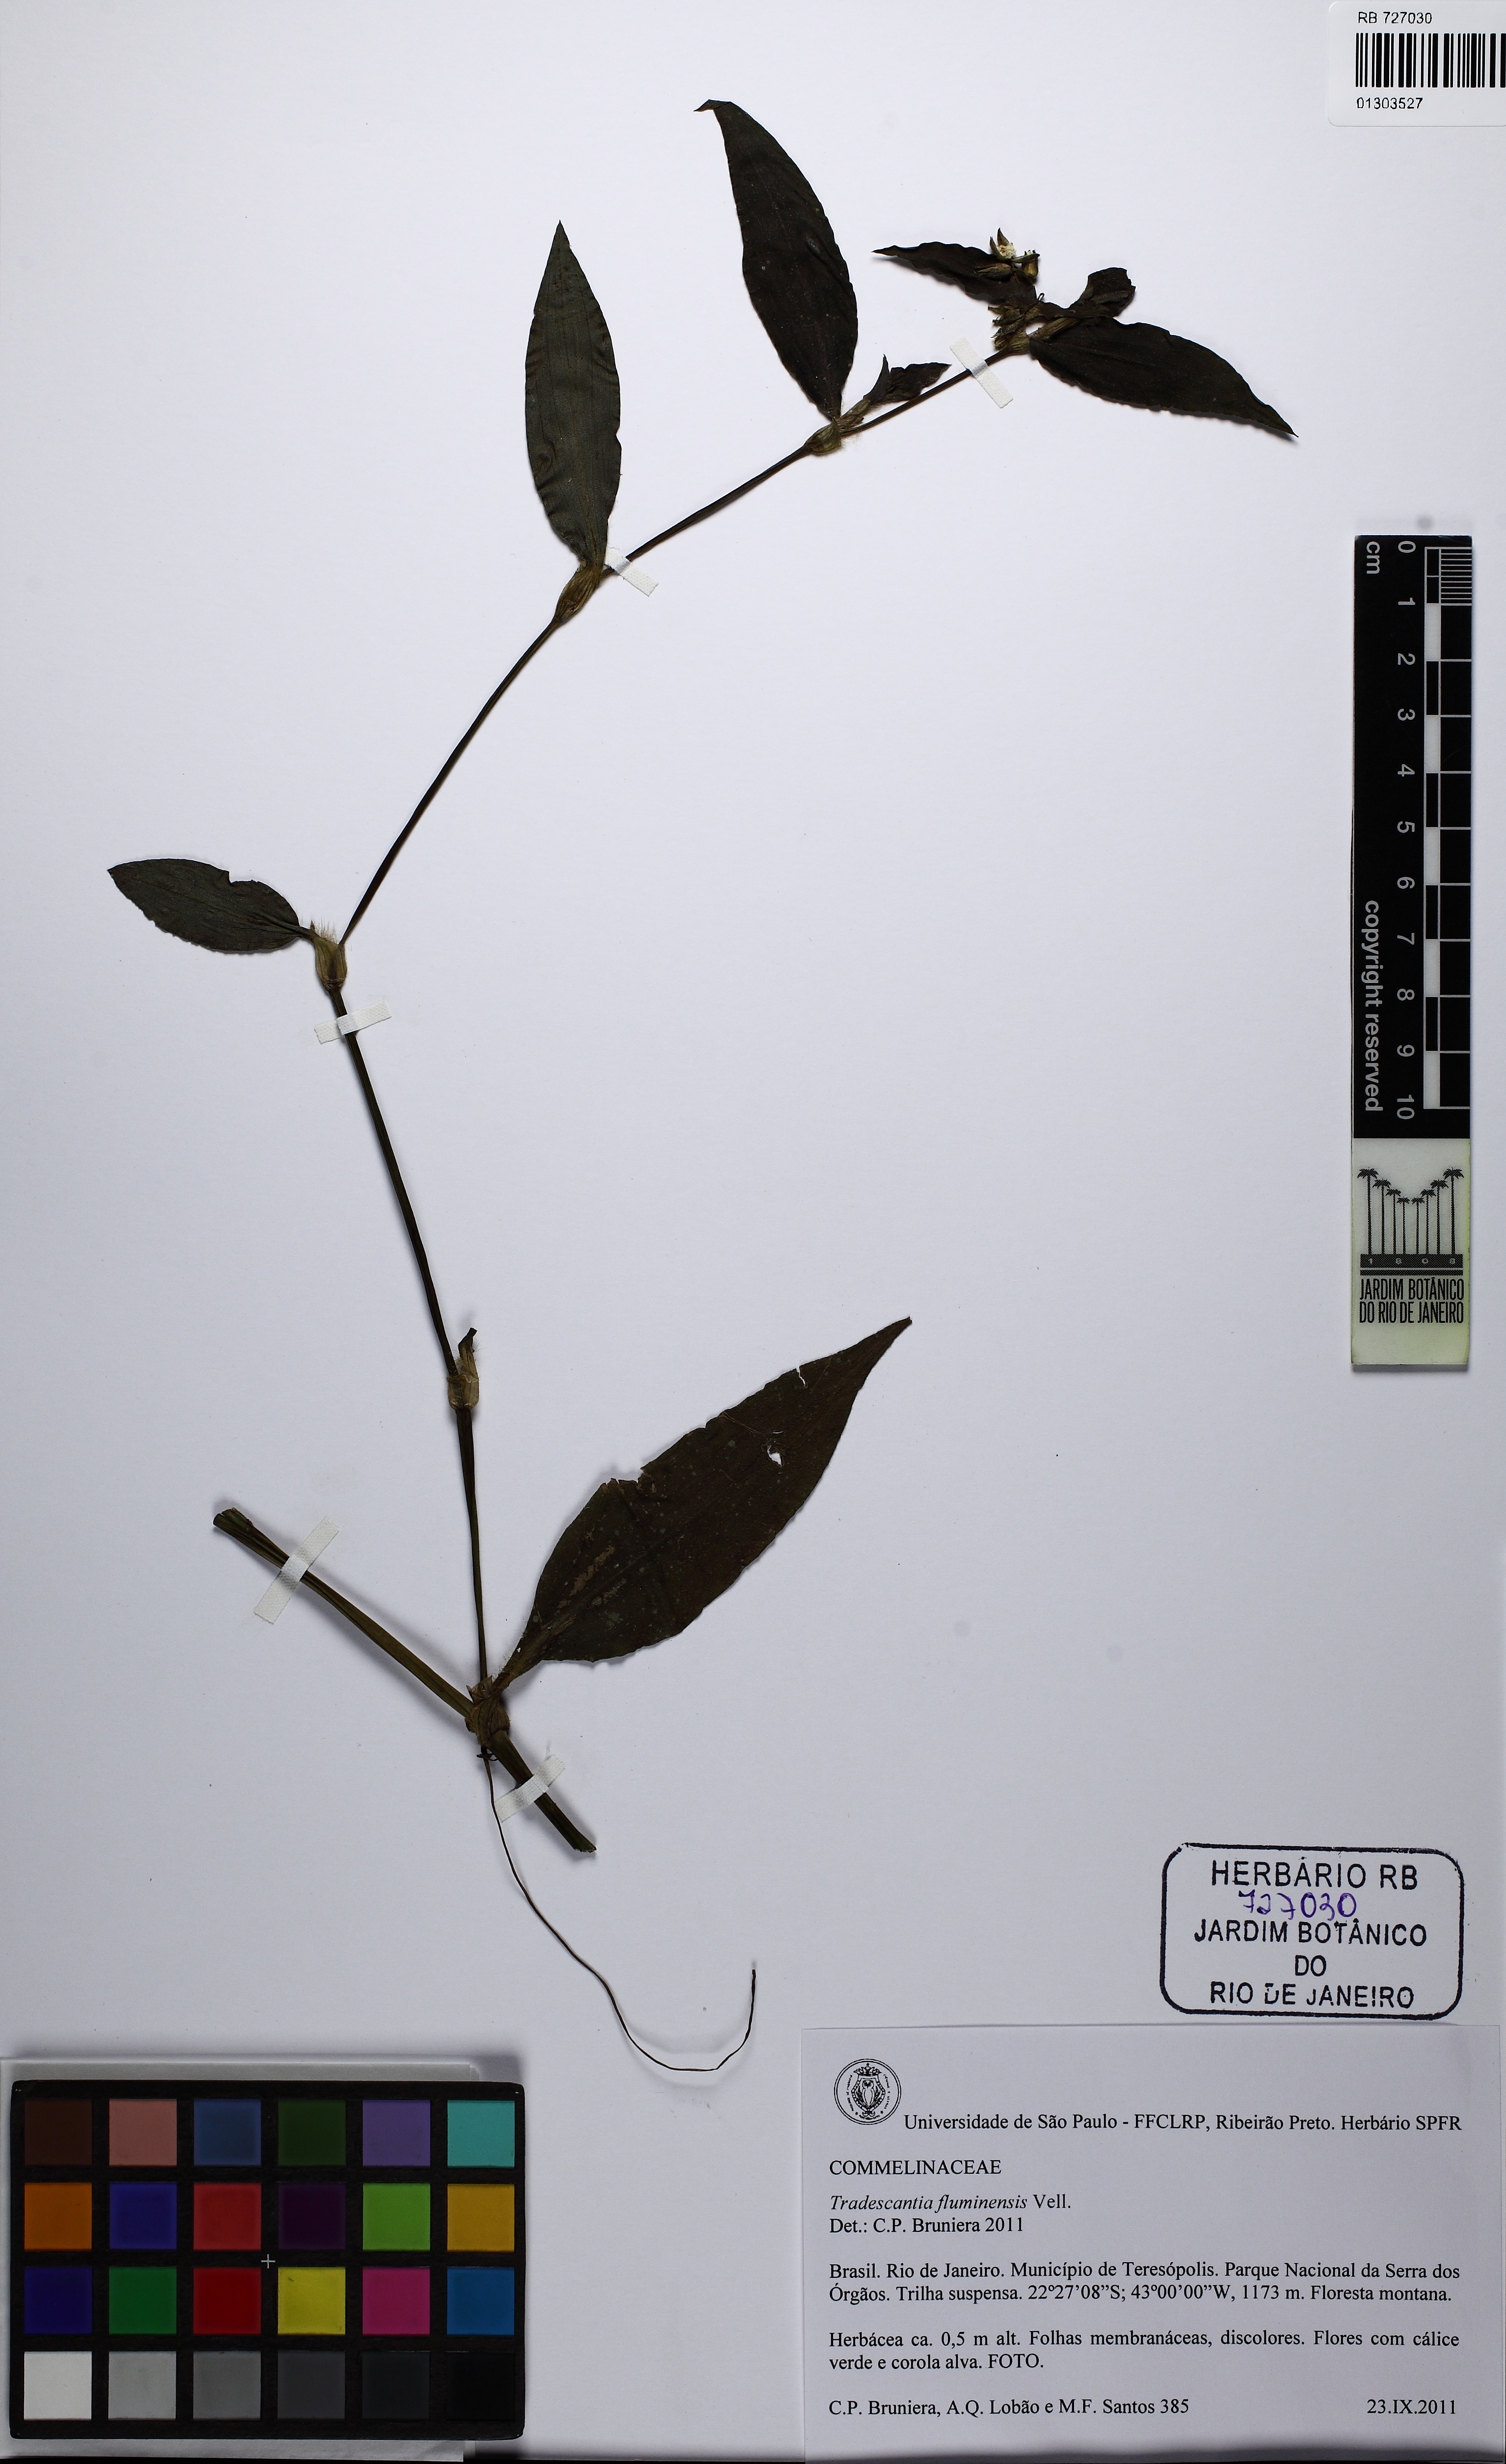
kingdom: Plantae
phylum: Tracheophyta
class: Liliopsida
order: Commelinales
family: Commelinaceae
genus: Tradescantia
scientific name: Tradescantia fluminensis
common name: Wandering-jew
